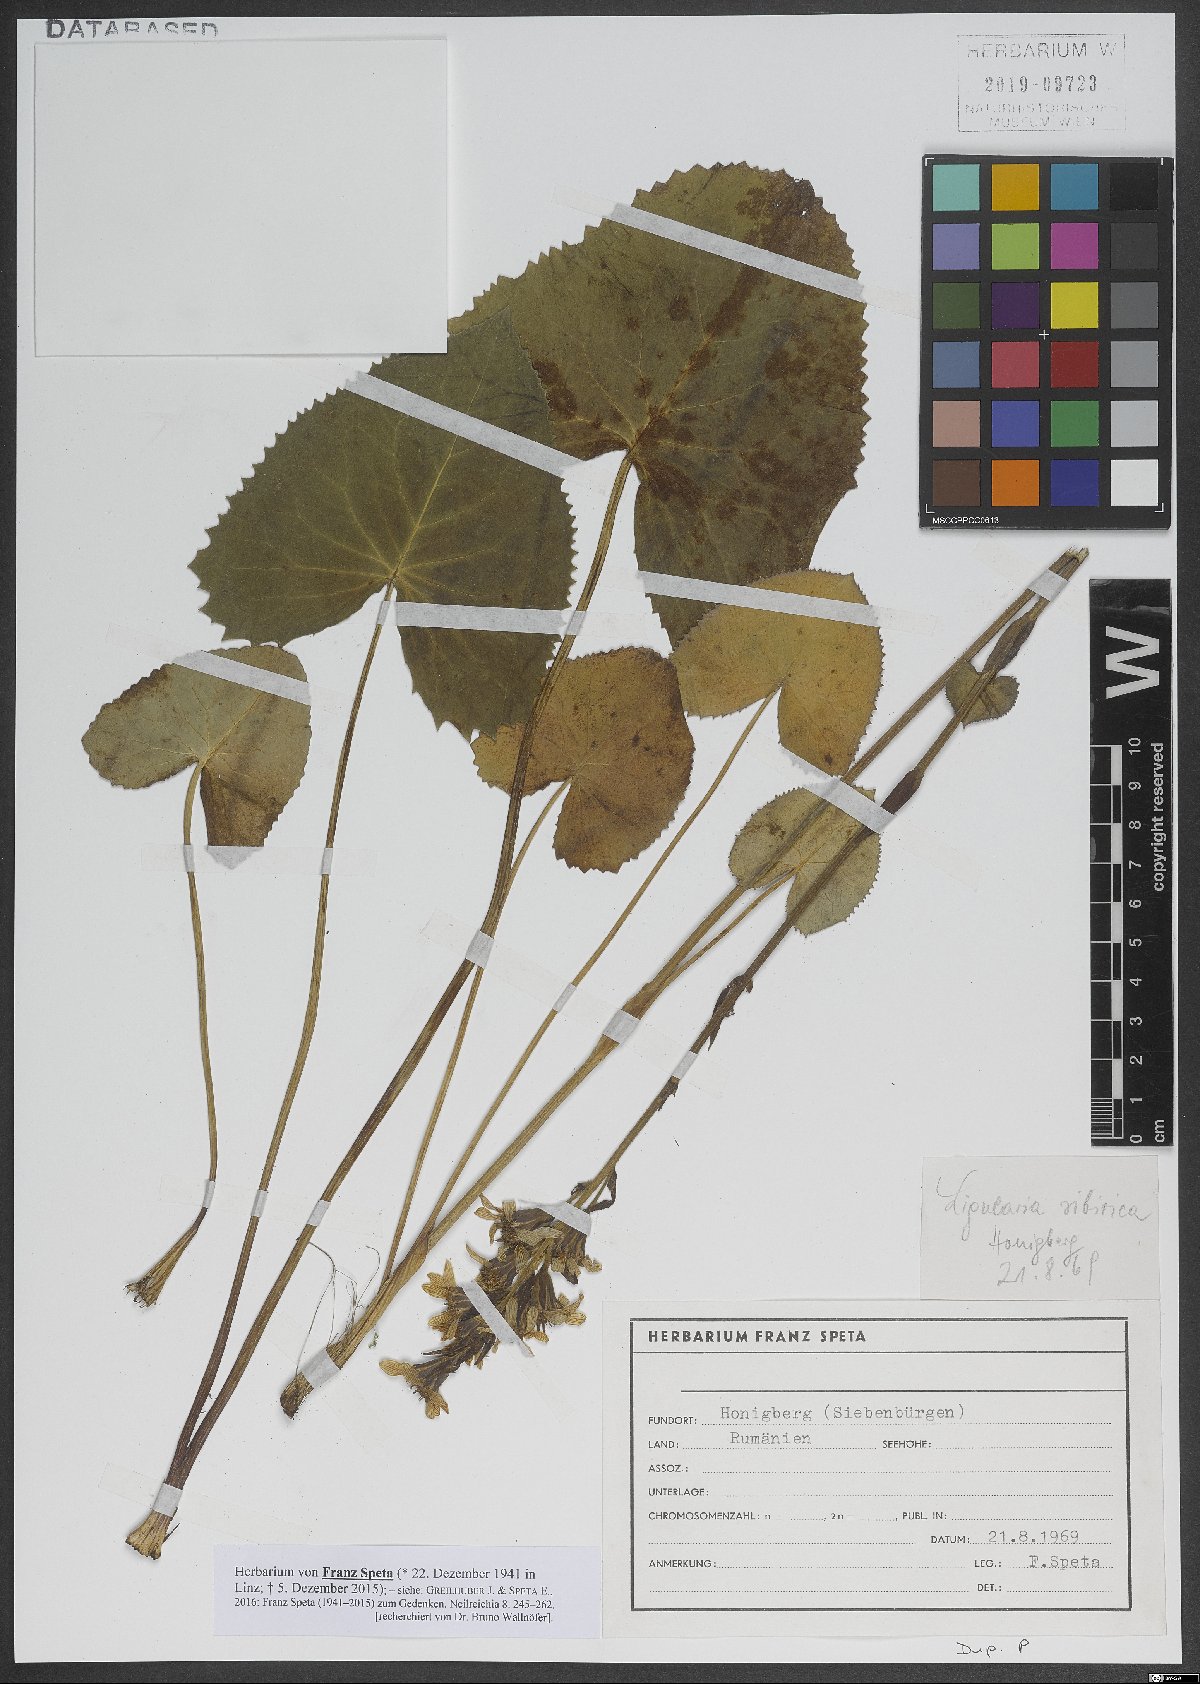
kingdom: Plantae
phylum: Tracheophyta
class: Magnoliopsida
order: Asterales
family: Asteraceae
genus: Ligularia
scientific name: Ligularia sibirica
